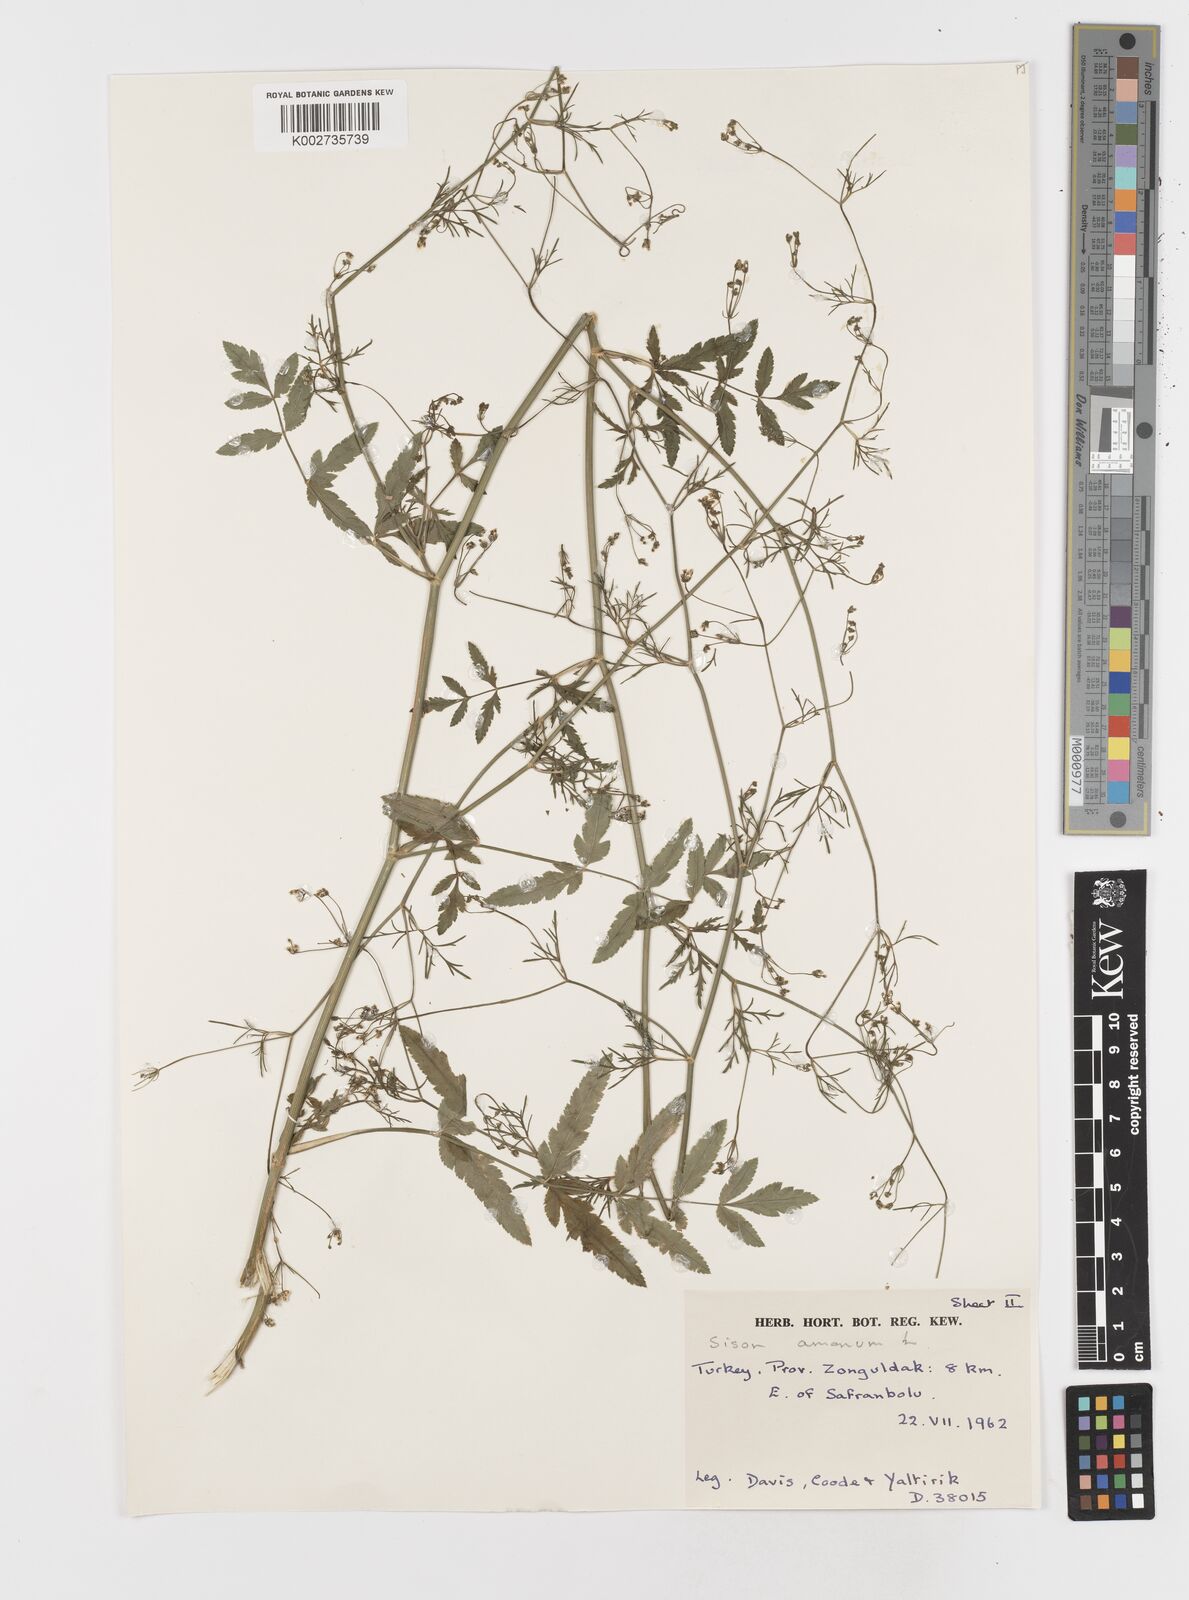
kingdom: Plantae
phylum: Tracheophyta
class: Magnoliopsida
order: Apiales
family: Apiaceae
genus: Sison
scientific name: Sison amomum
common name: Stone-parsley
